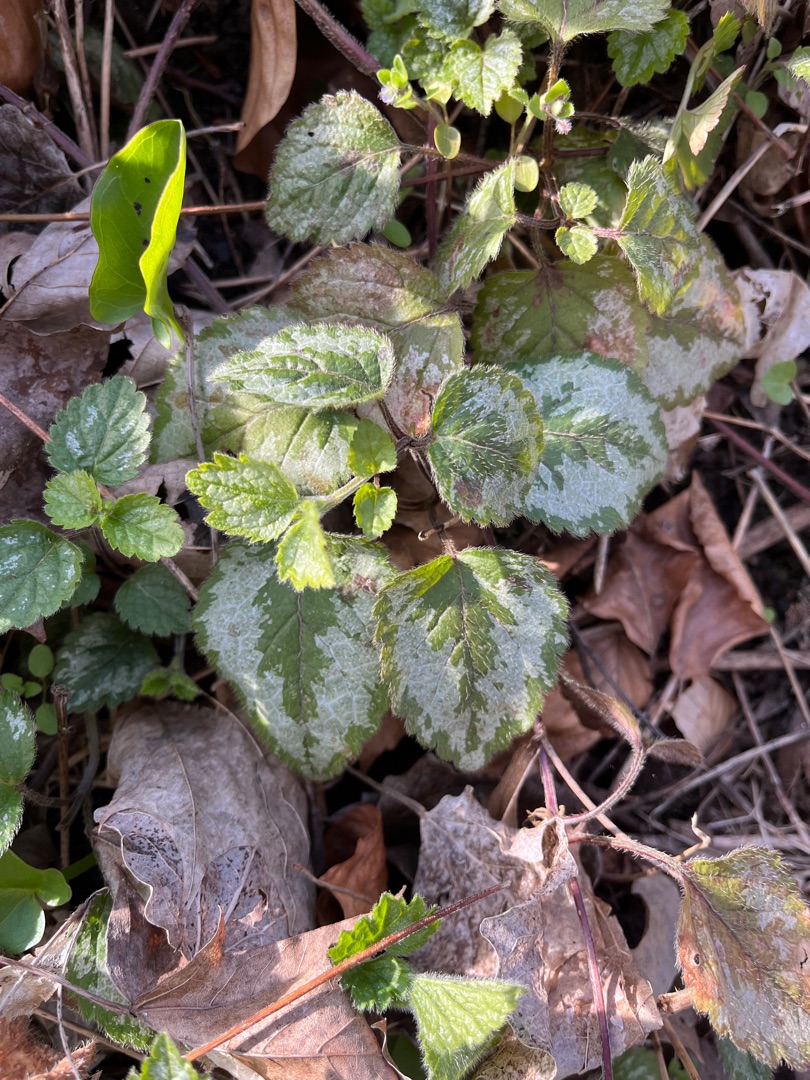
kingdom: Plantae
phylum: Tracheophyta
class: Magnoliopsida
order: Lamiales
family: Lamiaceae
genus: Lamium
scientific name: Lamium galeobdolon
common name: Have-guldnælde
